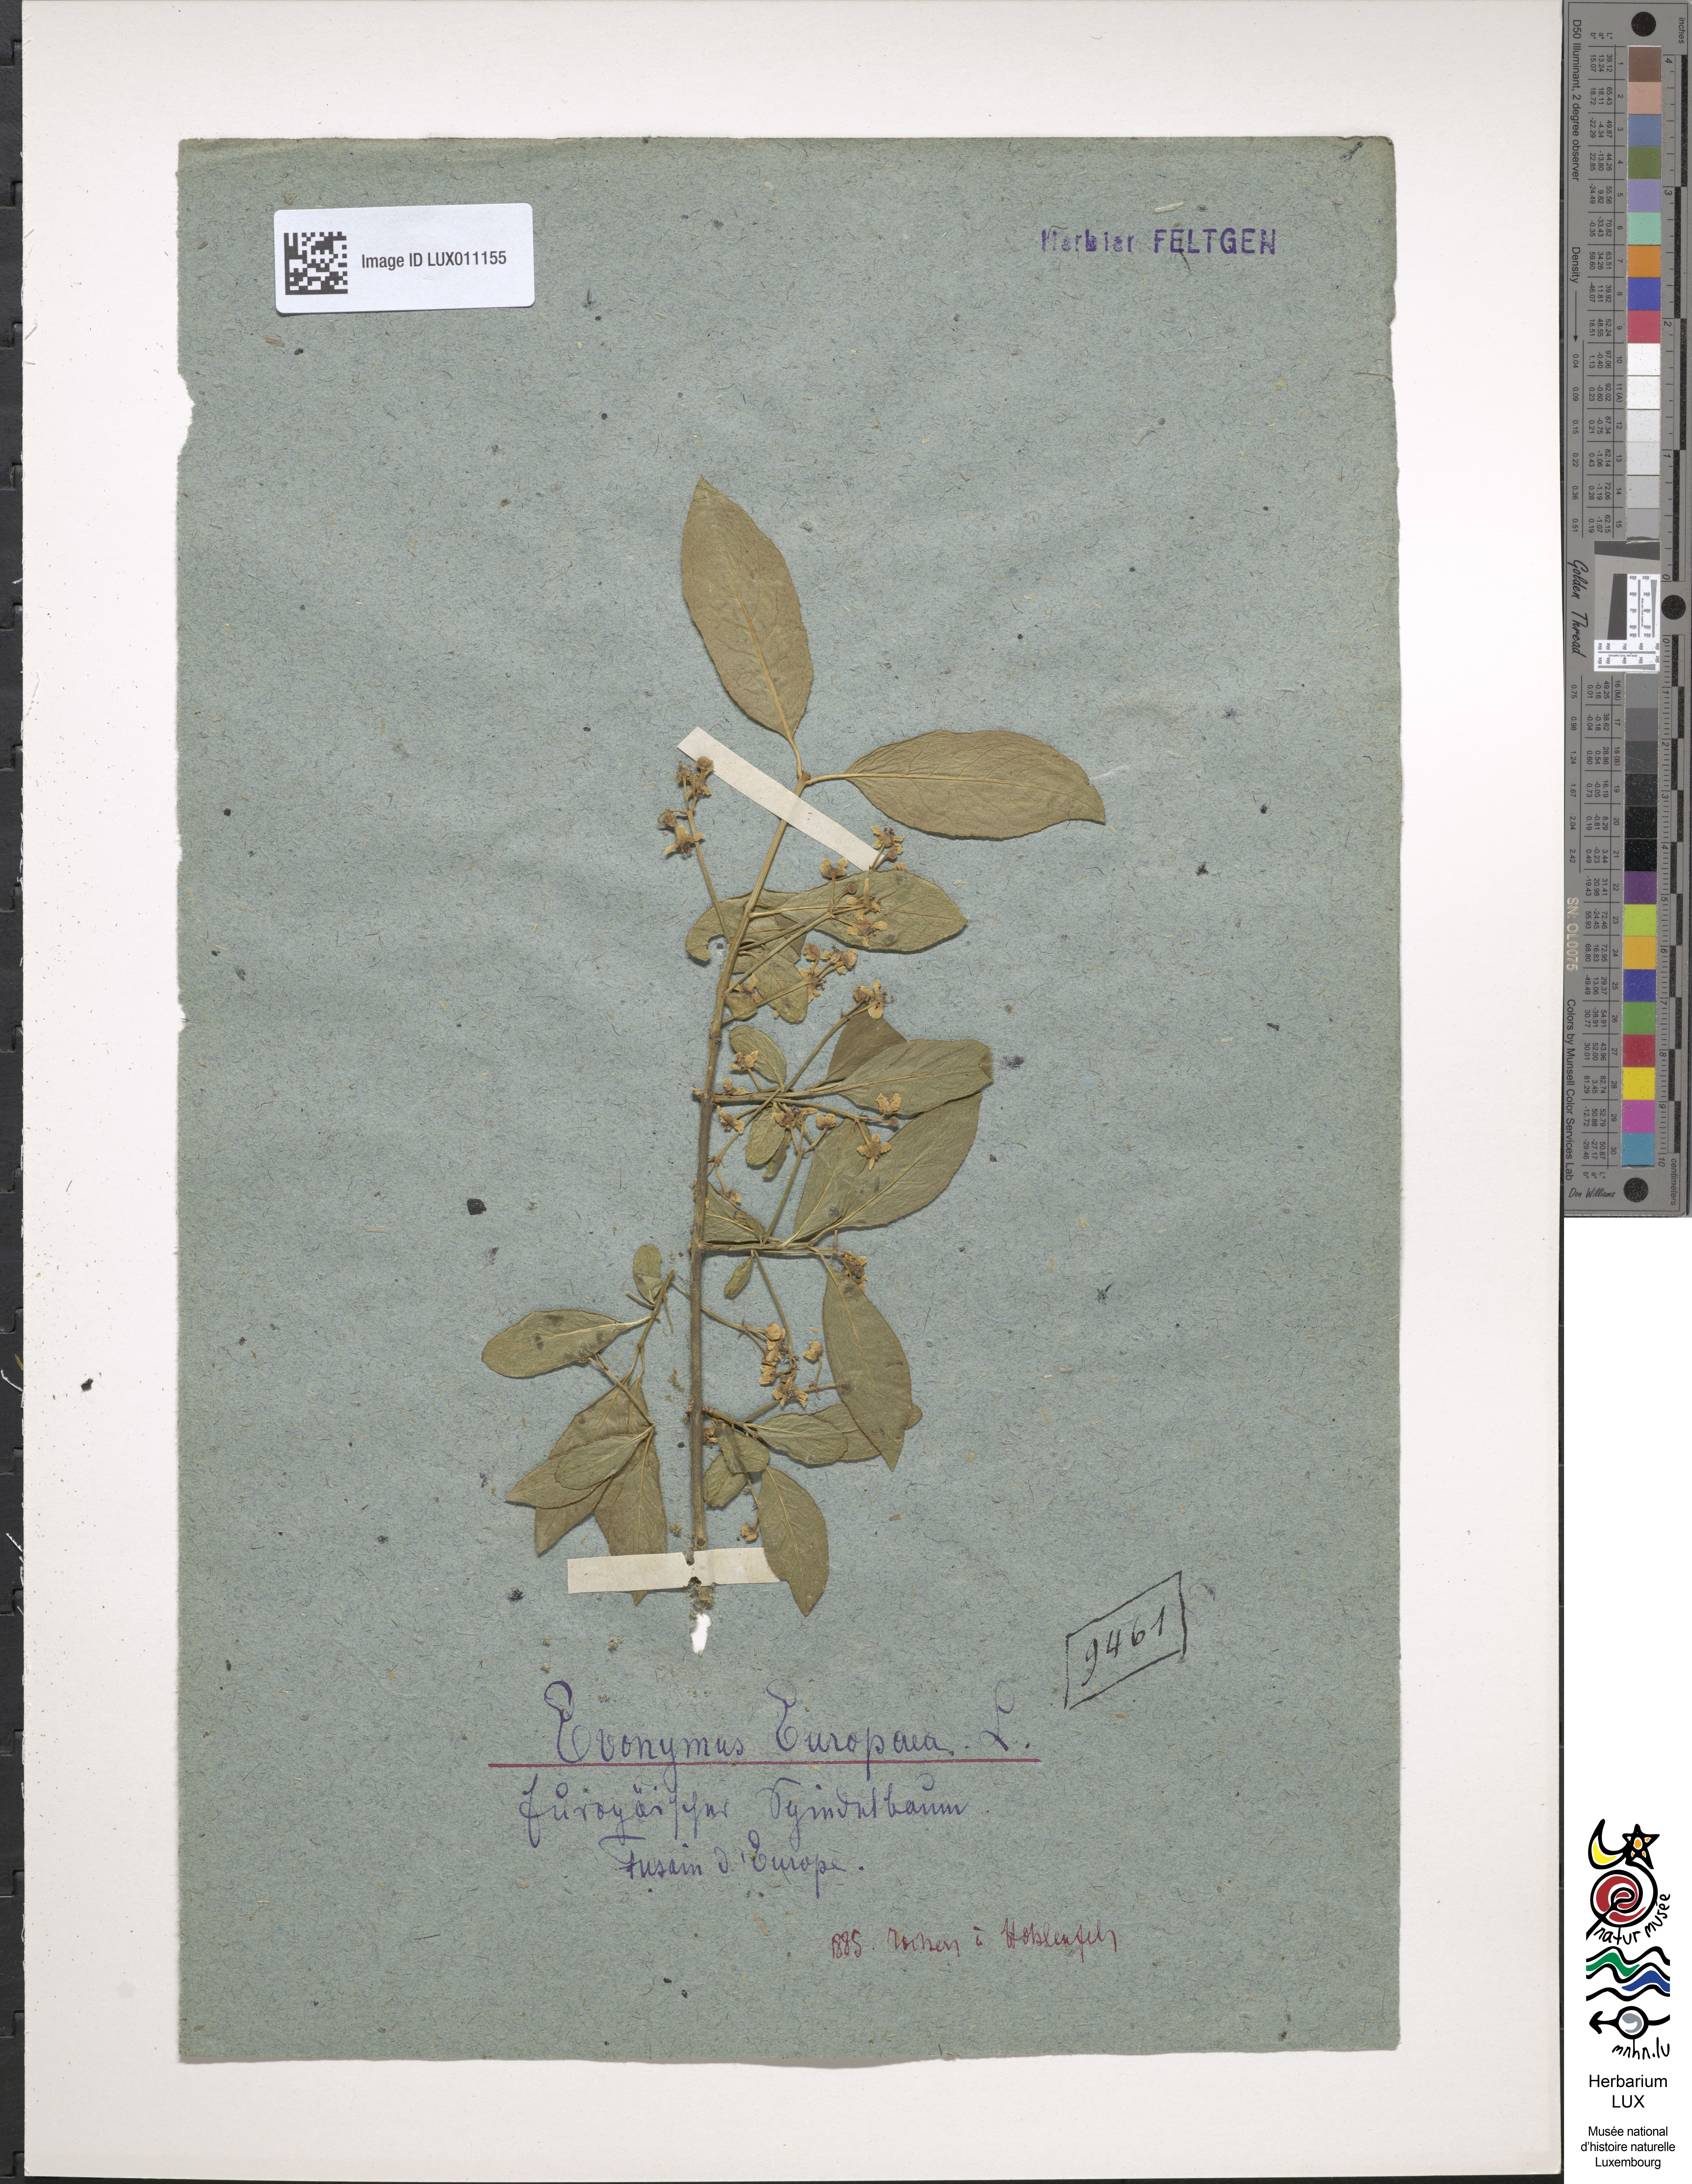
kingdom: Plantae
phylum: Tracheophyta
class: Magnoliopsida
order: Celastrales
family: Celastraceae
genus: Euonymus
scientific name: Euonymus europaeus
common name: Spindle
